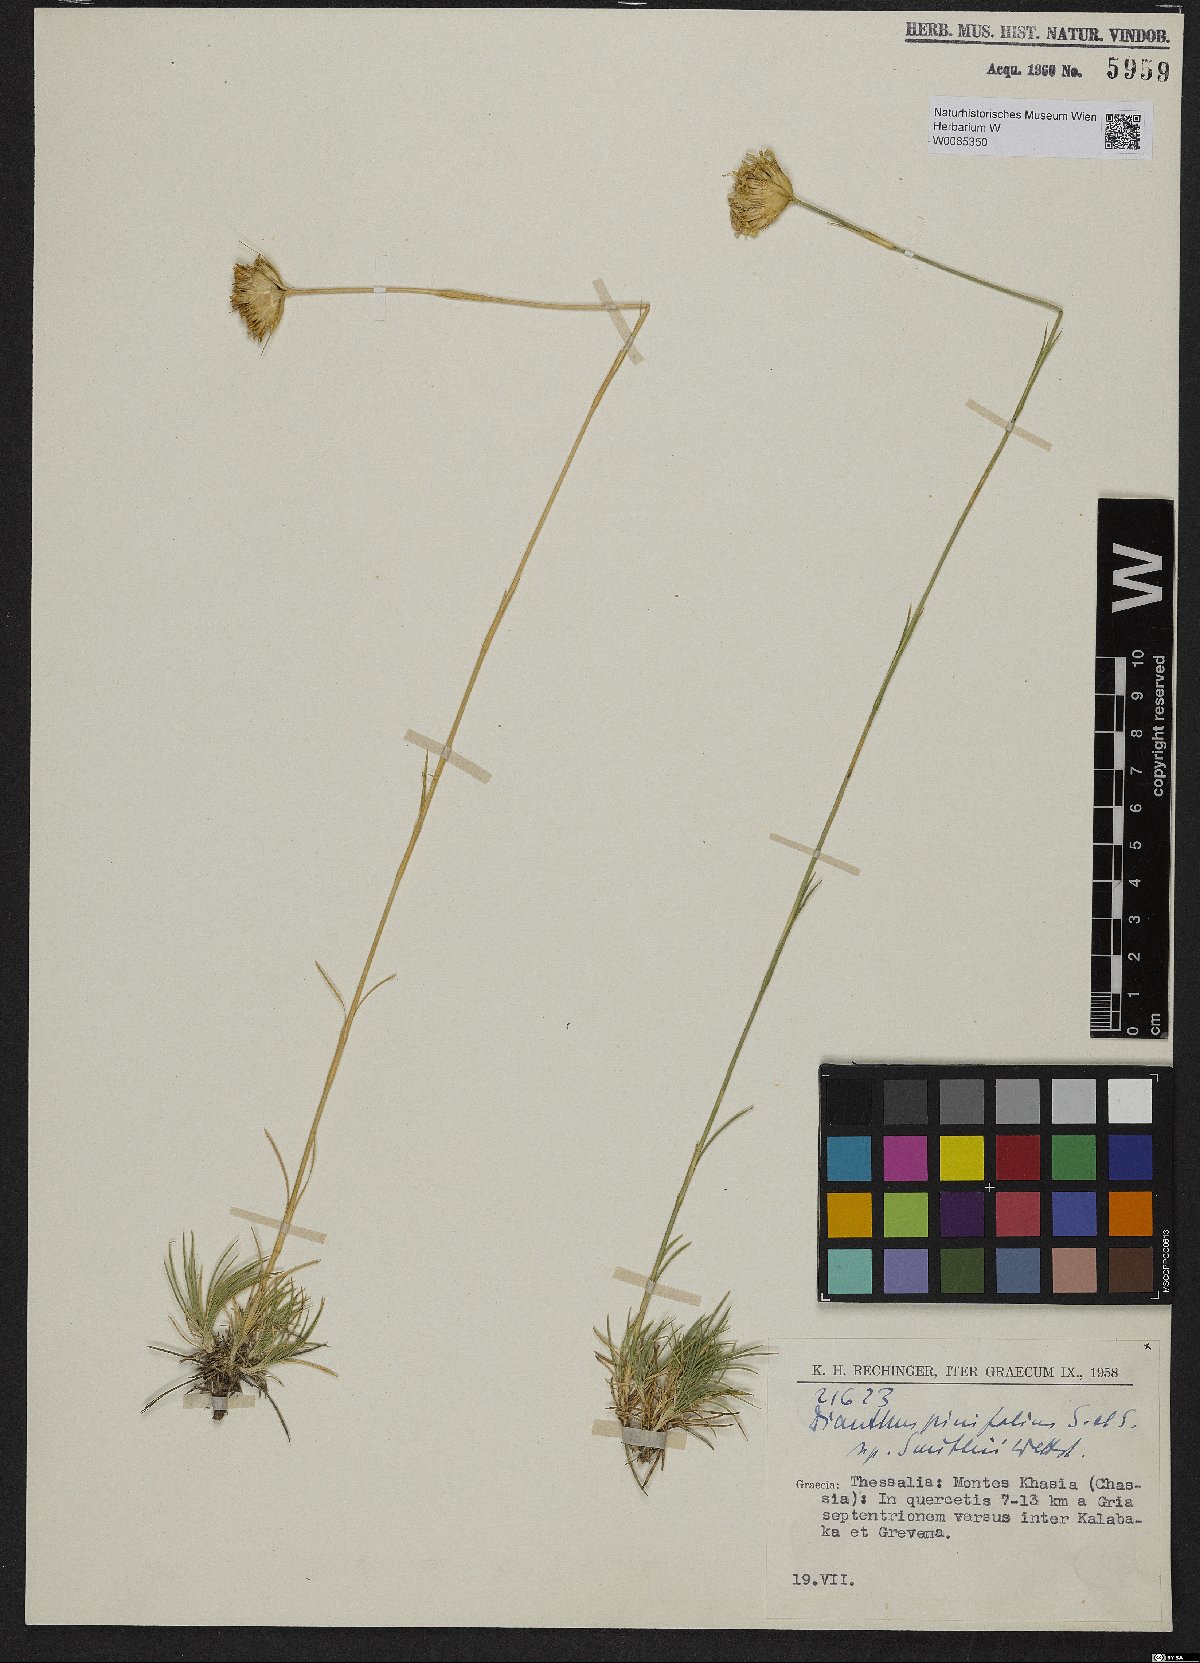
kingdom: Plantae
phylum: Tracheophyta
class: Magnoliopsida
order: Caryophyllales
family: Caryophyllaceae
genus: Dianthus
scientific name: Dianthus pinifolius
